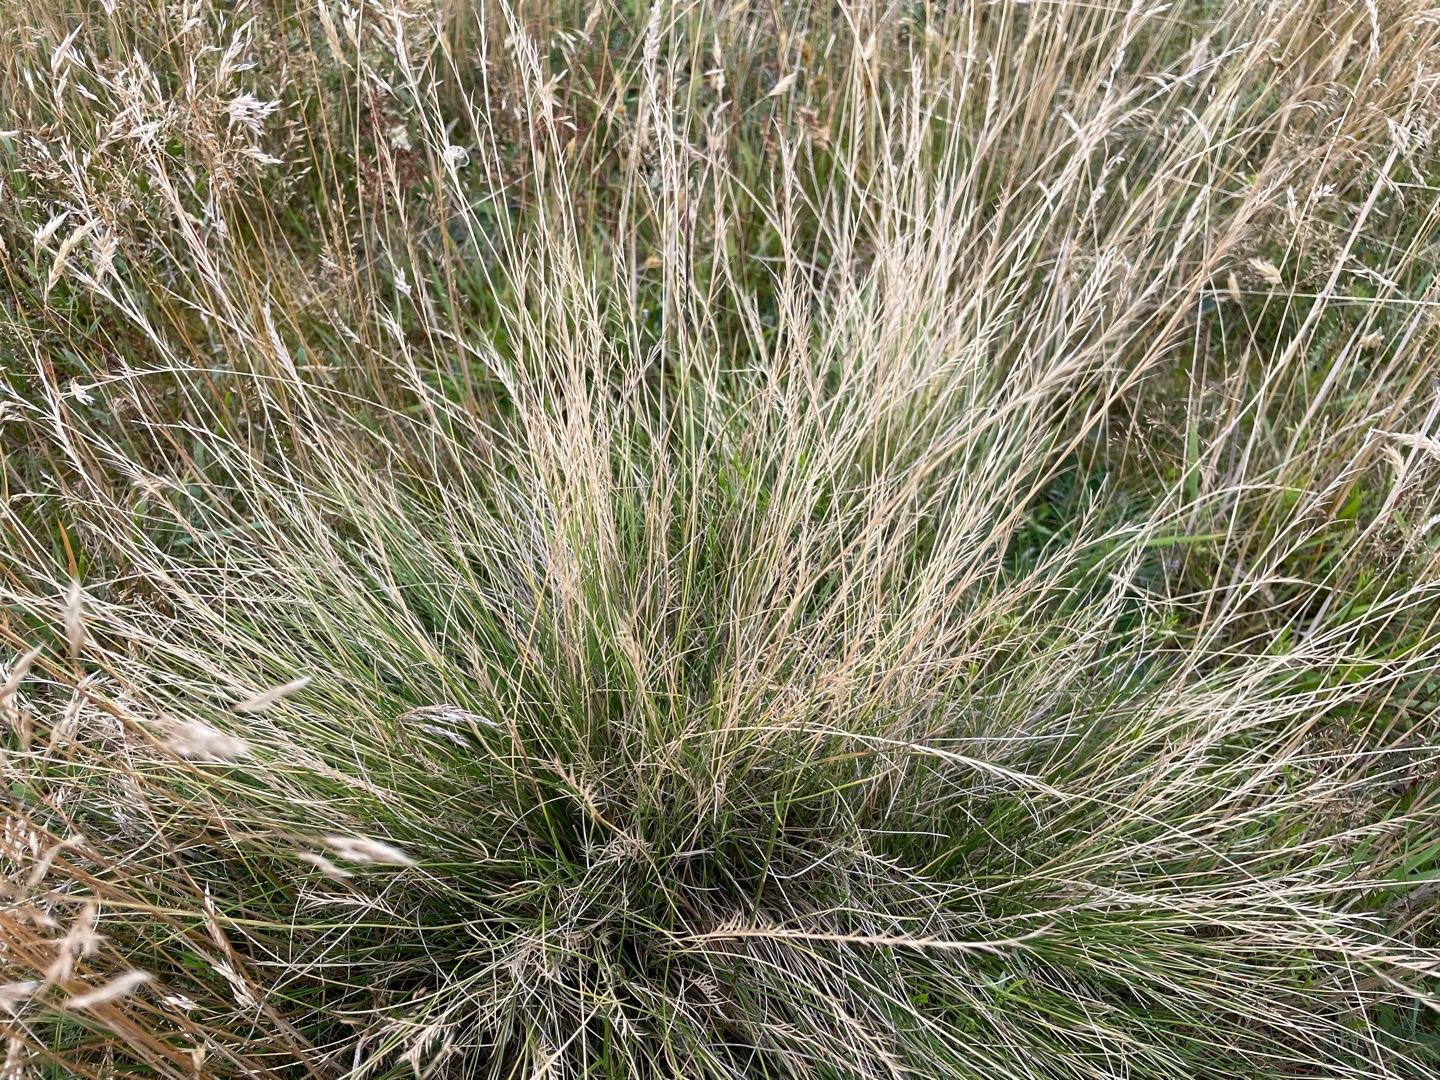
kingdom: Plantae
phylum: Tracheophyta
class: Liliopsida
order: Poales
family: Poaceae
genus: Nardus
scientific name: Nardus stricta
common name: Katteskæg
